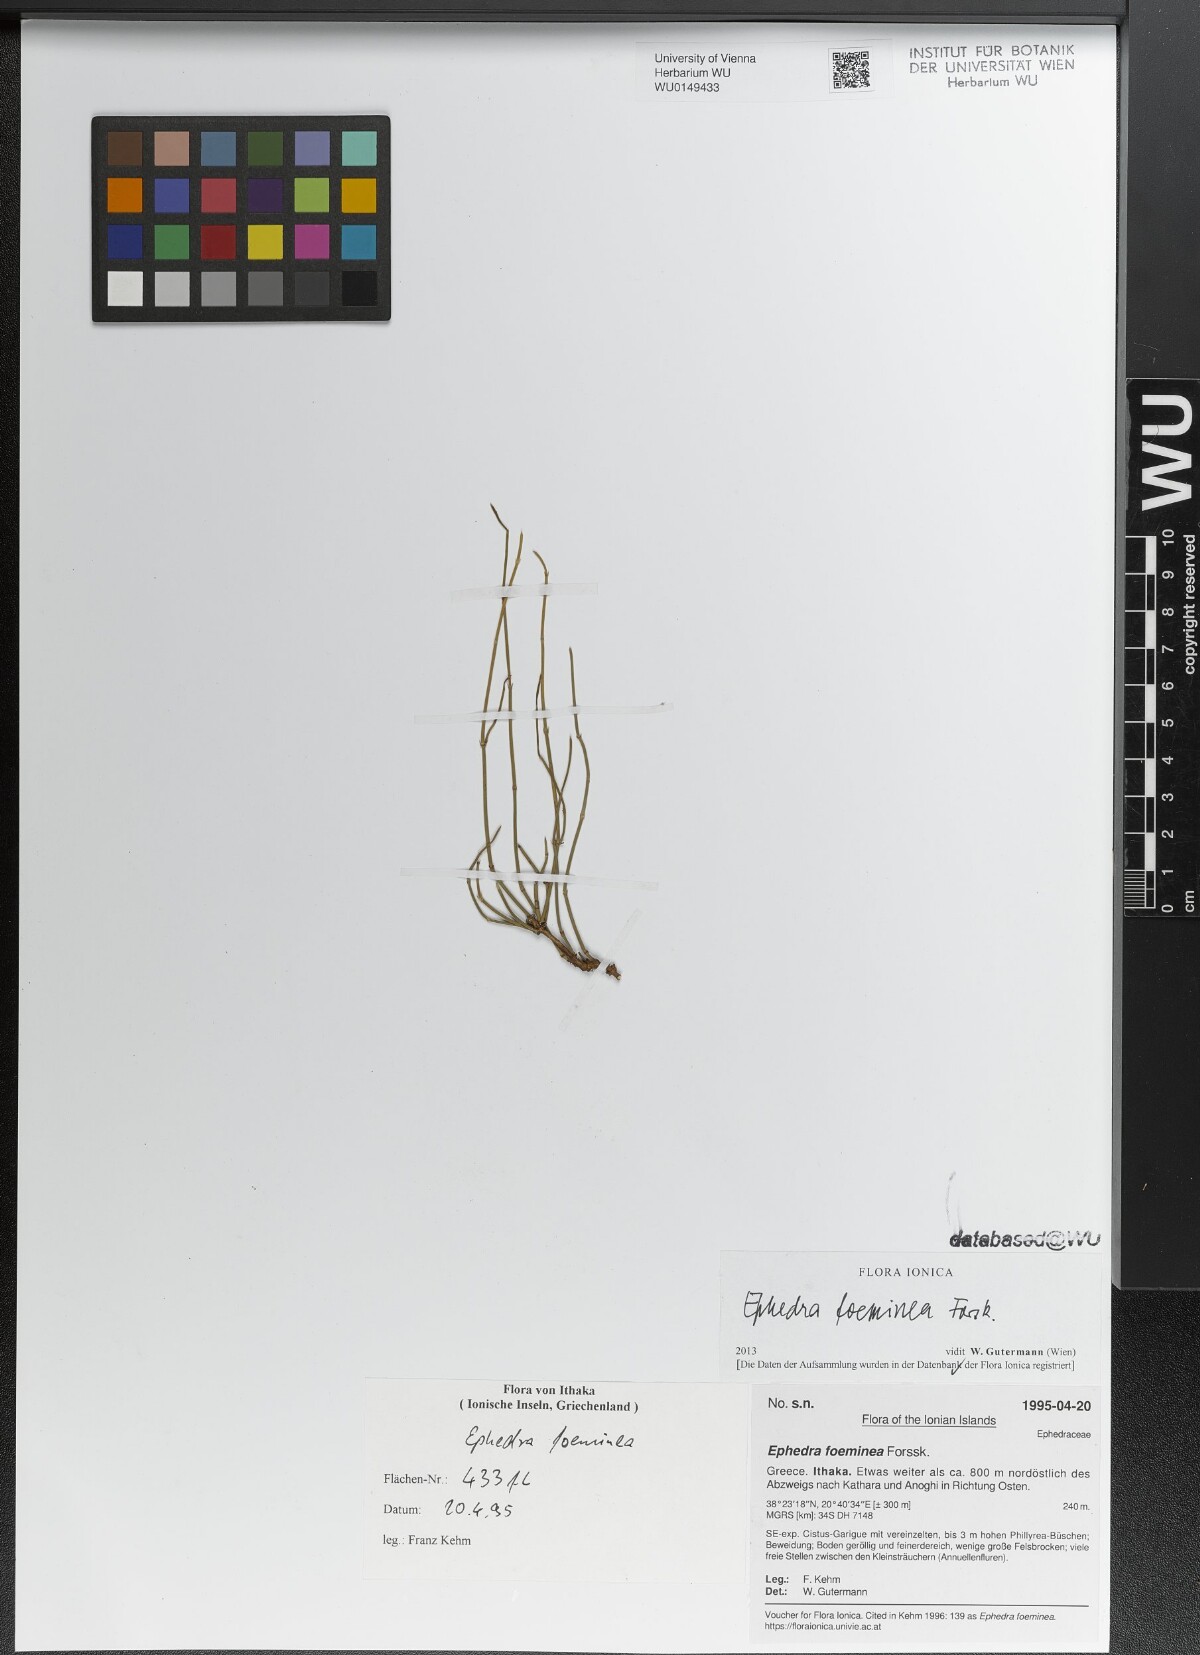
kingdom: Plantae
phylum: Tracheophyta
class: Gnetopsida
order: Ephedrales
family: Ephedraceae
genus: Ephedra
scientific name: Ephedra foeminea
